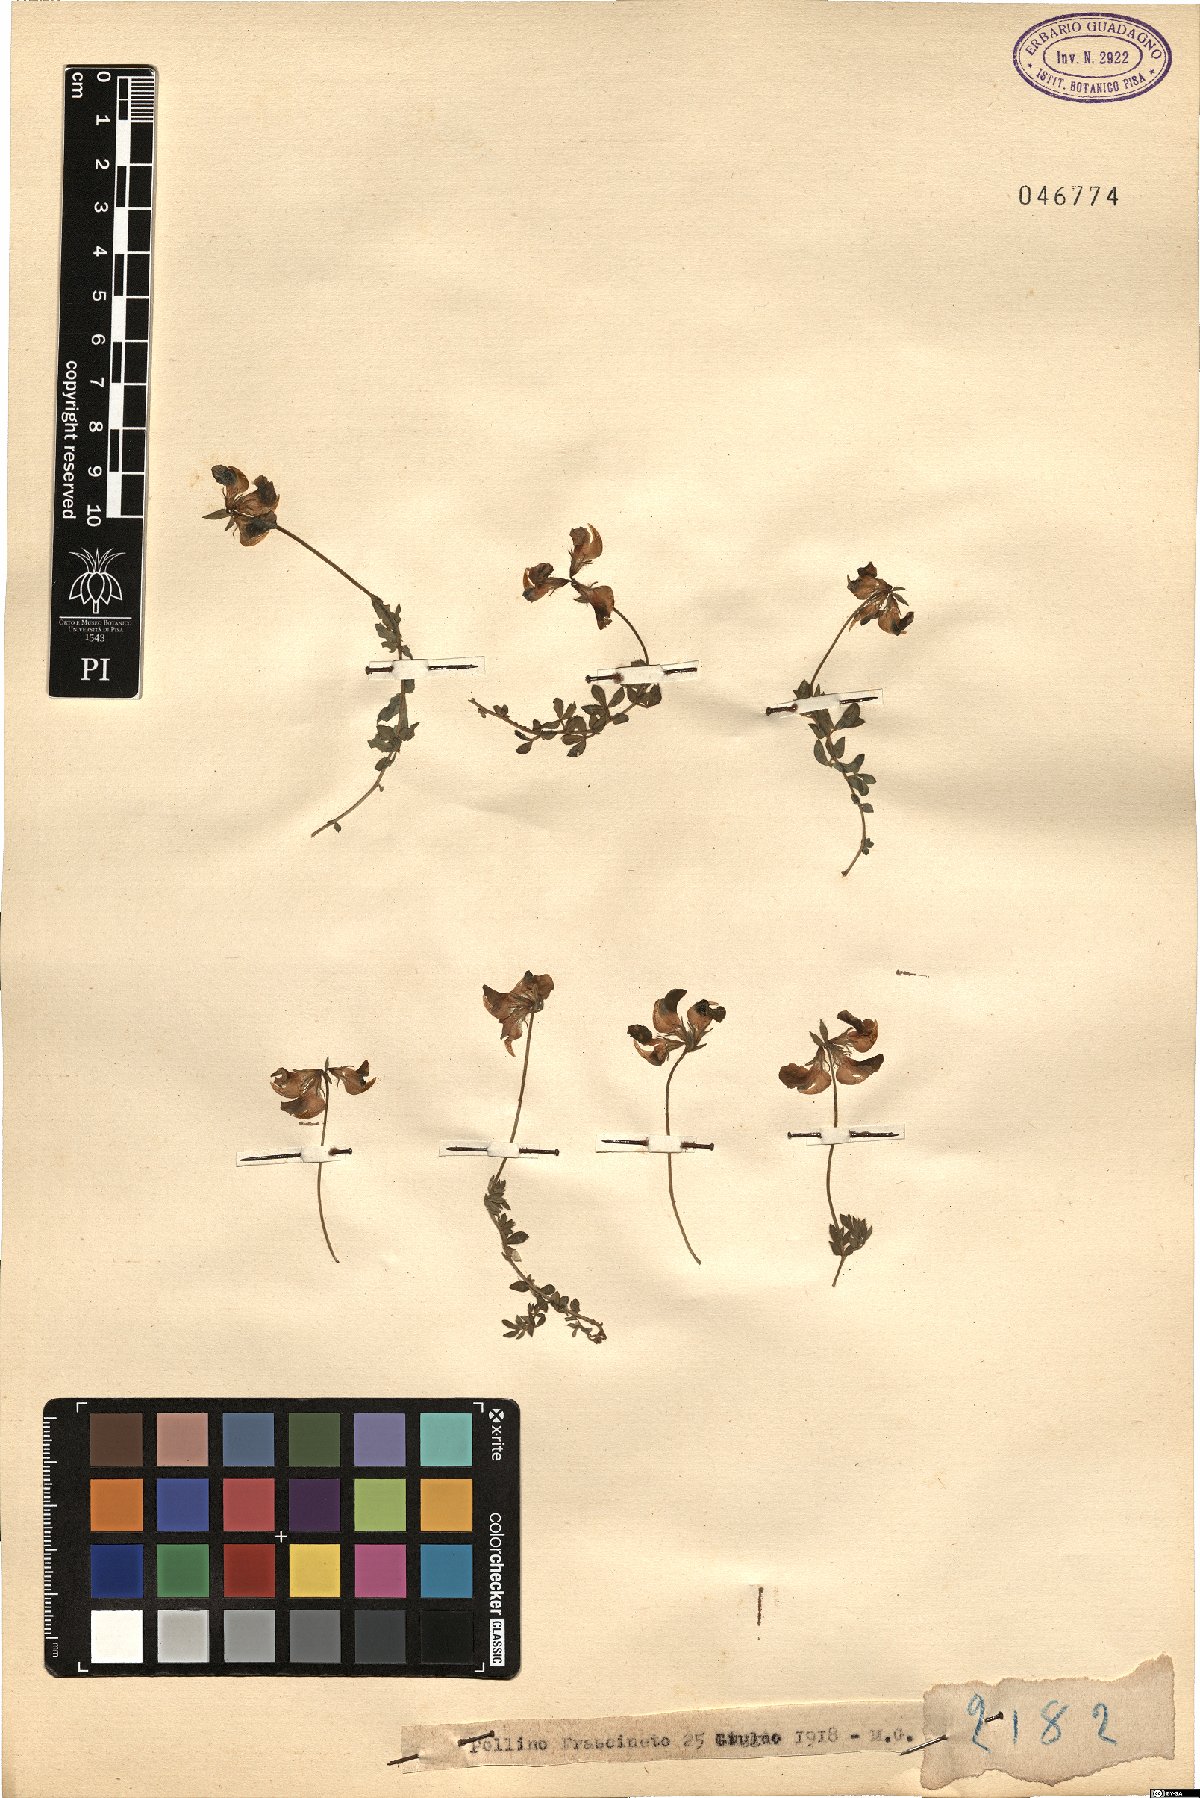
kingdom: Plantae
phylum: Tracheophyta
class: Magnoliopsida
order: Fabales
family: Fabaceae
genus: Lotus
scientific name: Lotus
